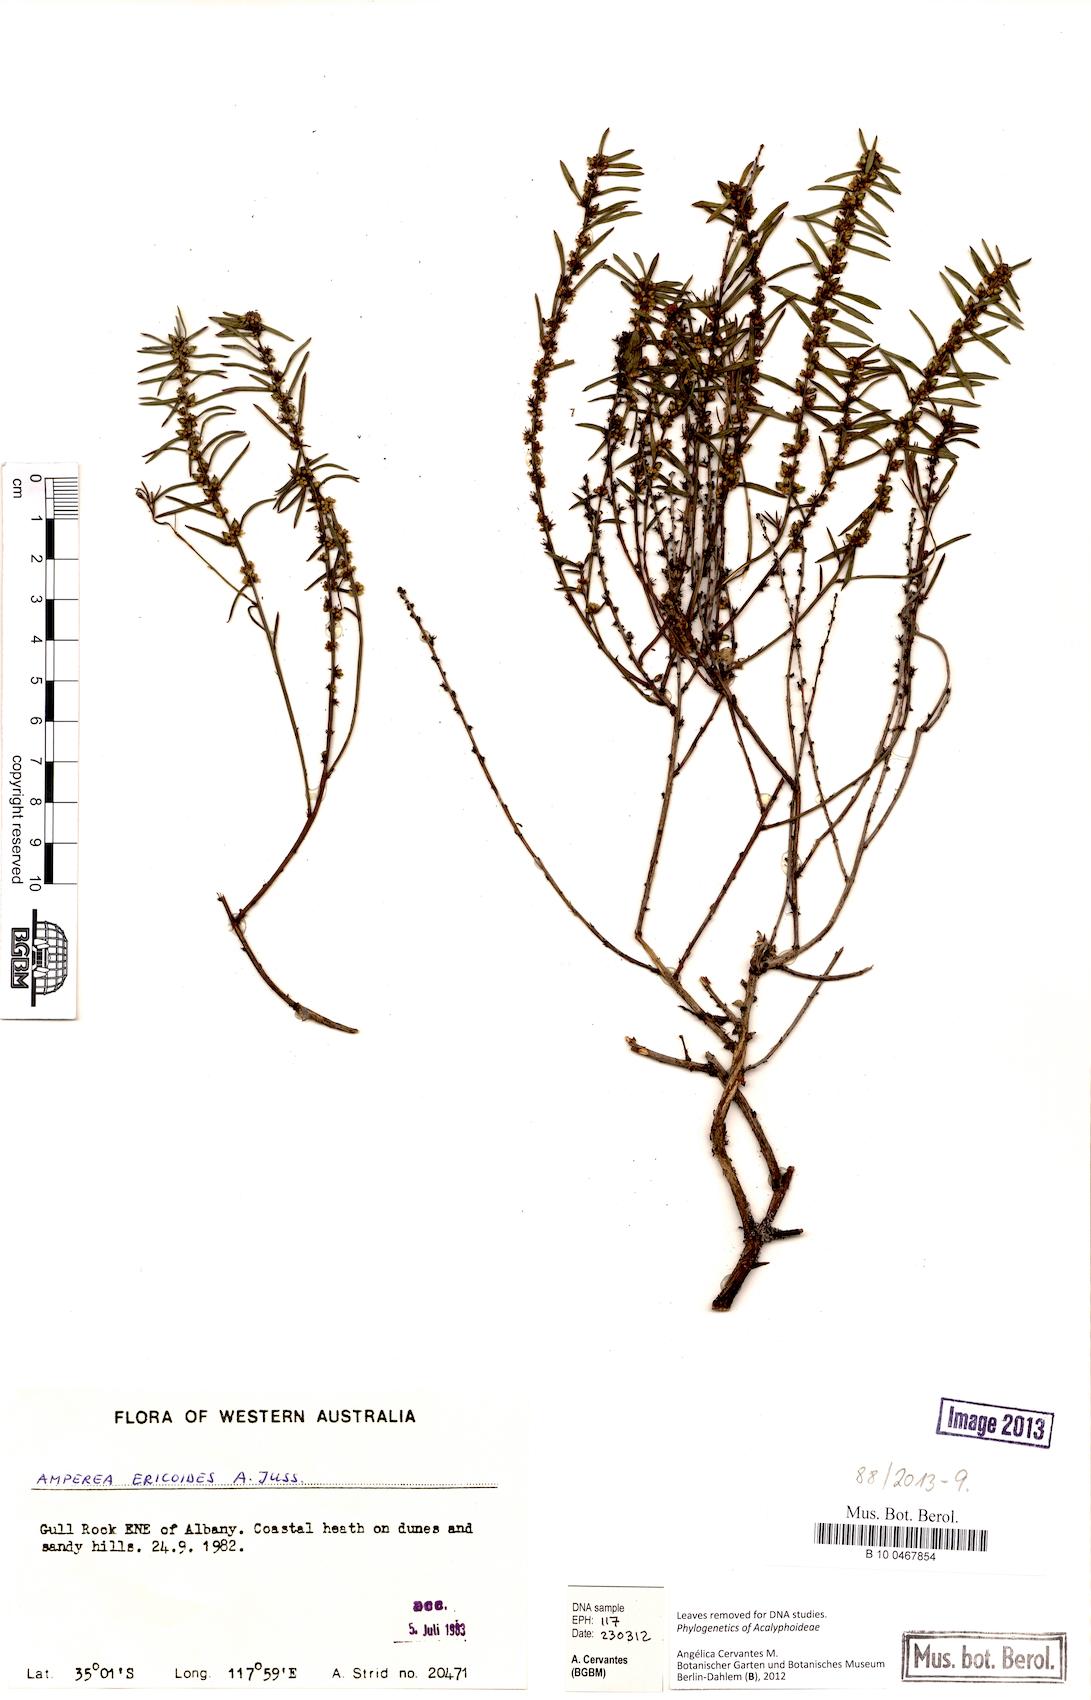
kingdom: Plantae
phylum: Tracheophyta
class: Magnoliopsida
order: Malpighiales
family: Euphorbiaceae
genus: Amperea
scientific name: Amperea ericoides
